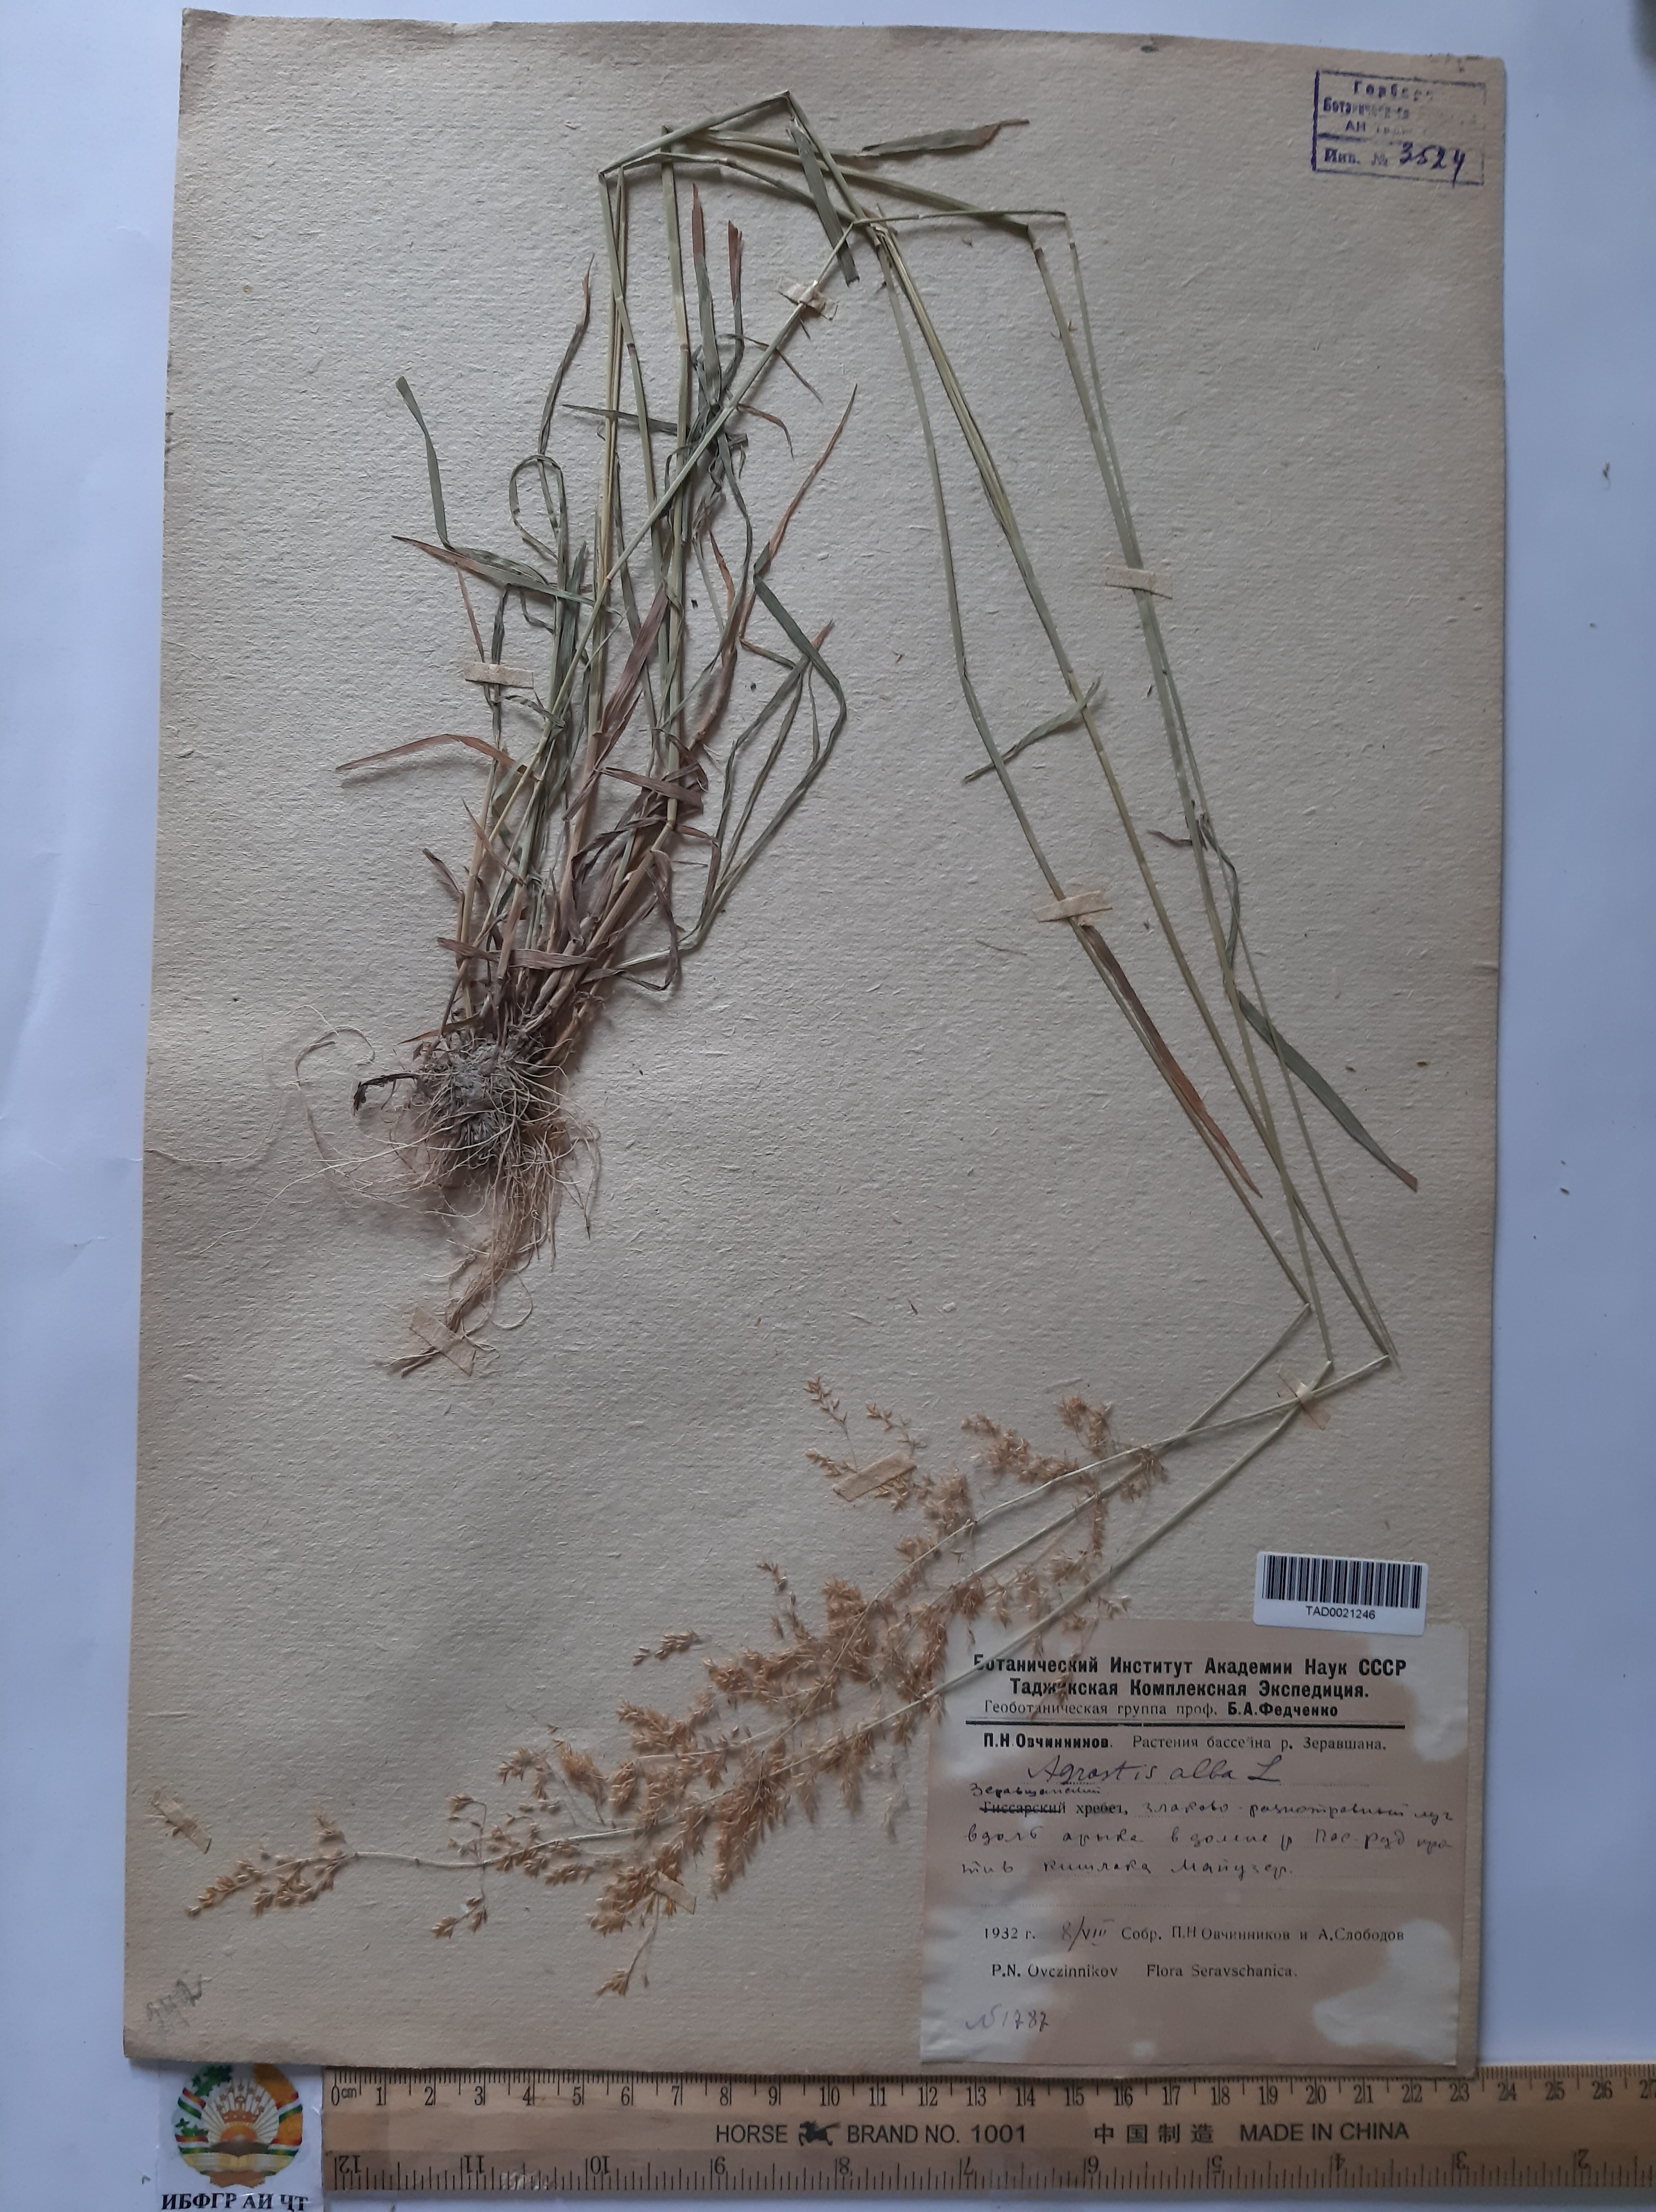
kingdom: Plantae
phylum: Tracheophyta
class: Liliopsida
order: Poales
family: Poaceae
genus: Poa
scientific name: Poa nemoralis
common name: Wood bluegrass
